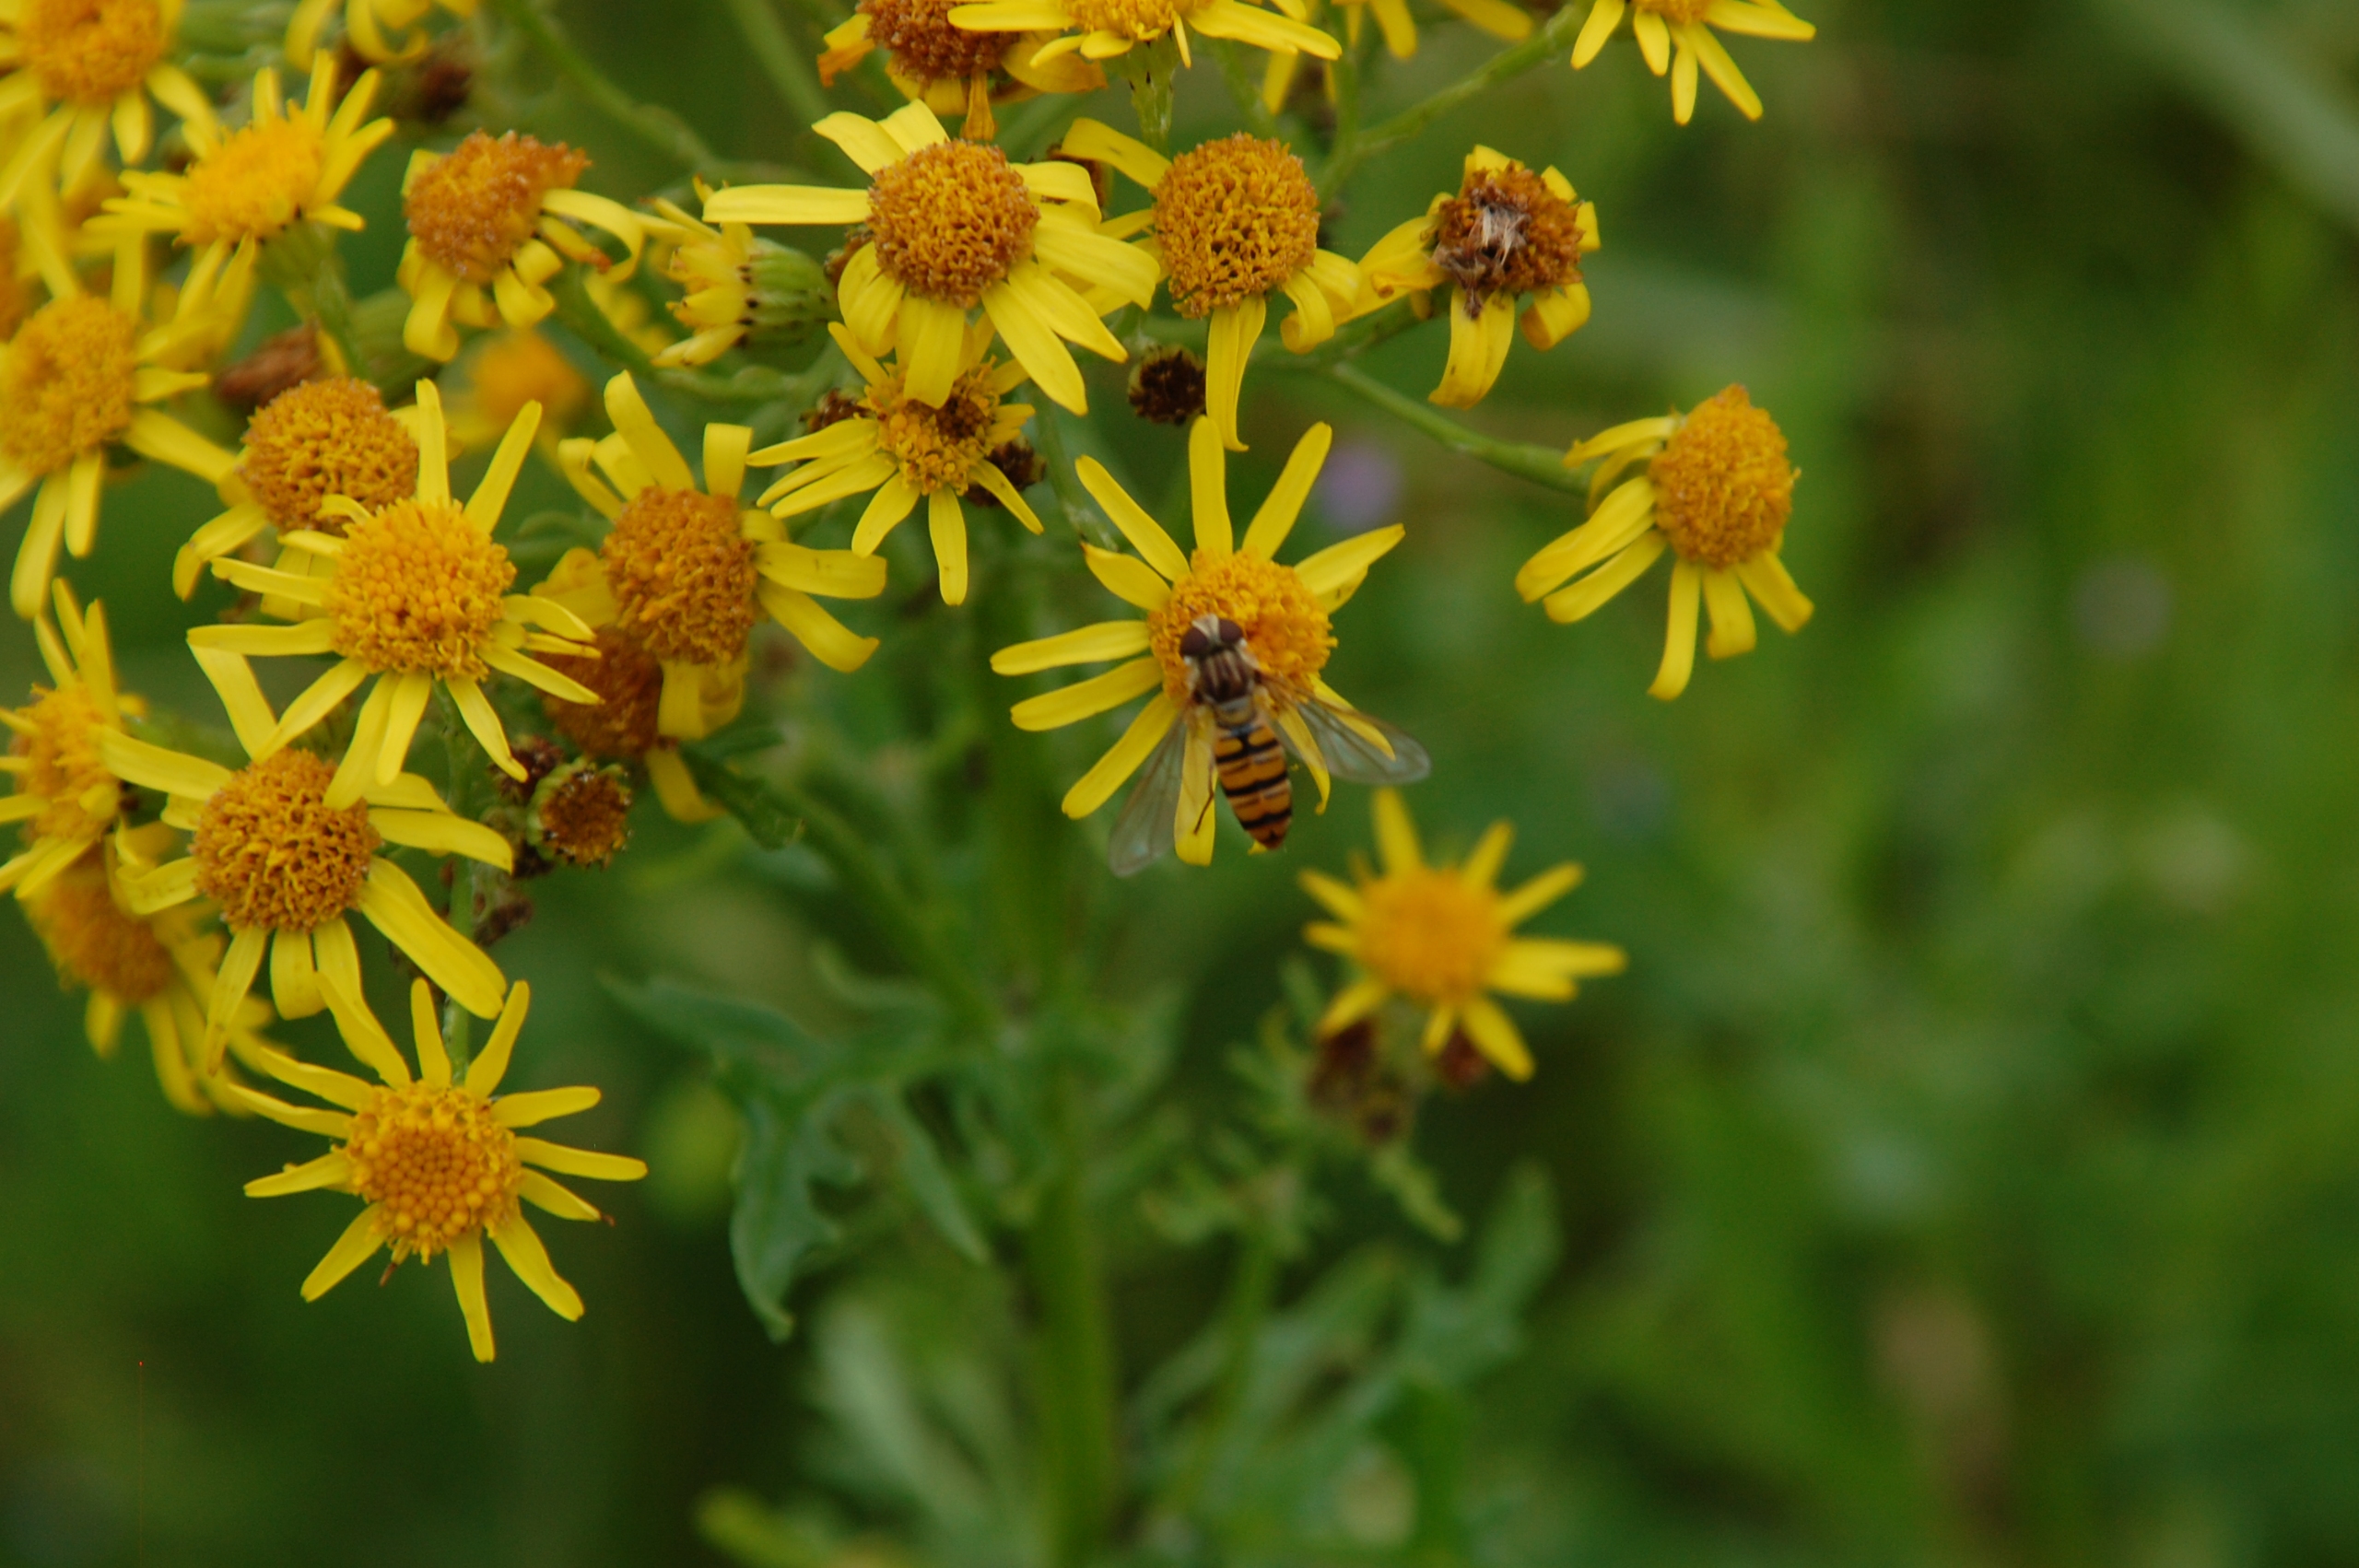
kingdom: Animalia
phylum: Arthropoda
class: Insecta
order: Diptera
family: Syrphidae
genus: Episyrphus
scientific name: Episyrphus balteatus
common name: Dobbeltbåndet svirreflue
